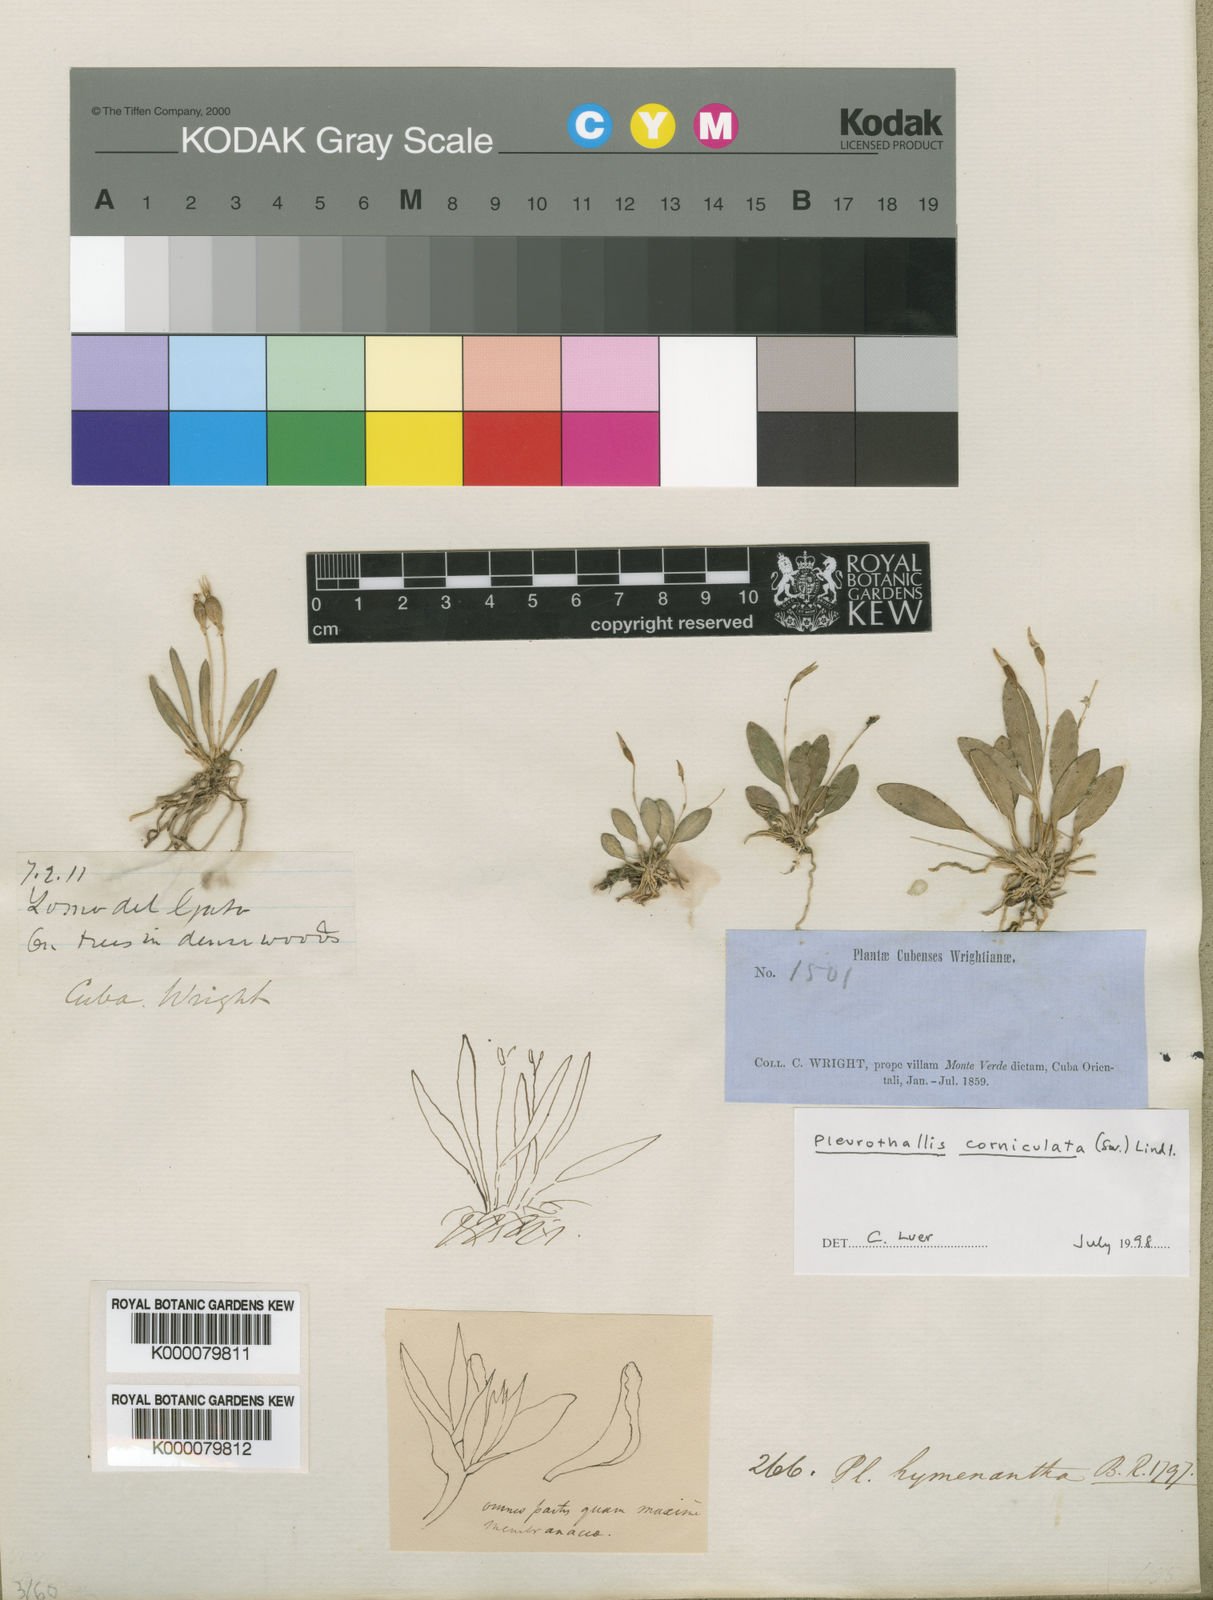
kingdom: Plantae
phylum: Tracheophyta
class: Liliopsida
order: Asparagales
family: Orchidaceae
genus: Specklinia
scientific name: Specklinia corniculata
